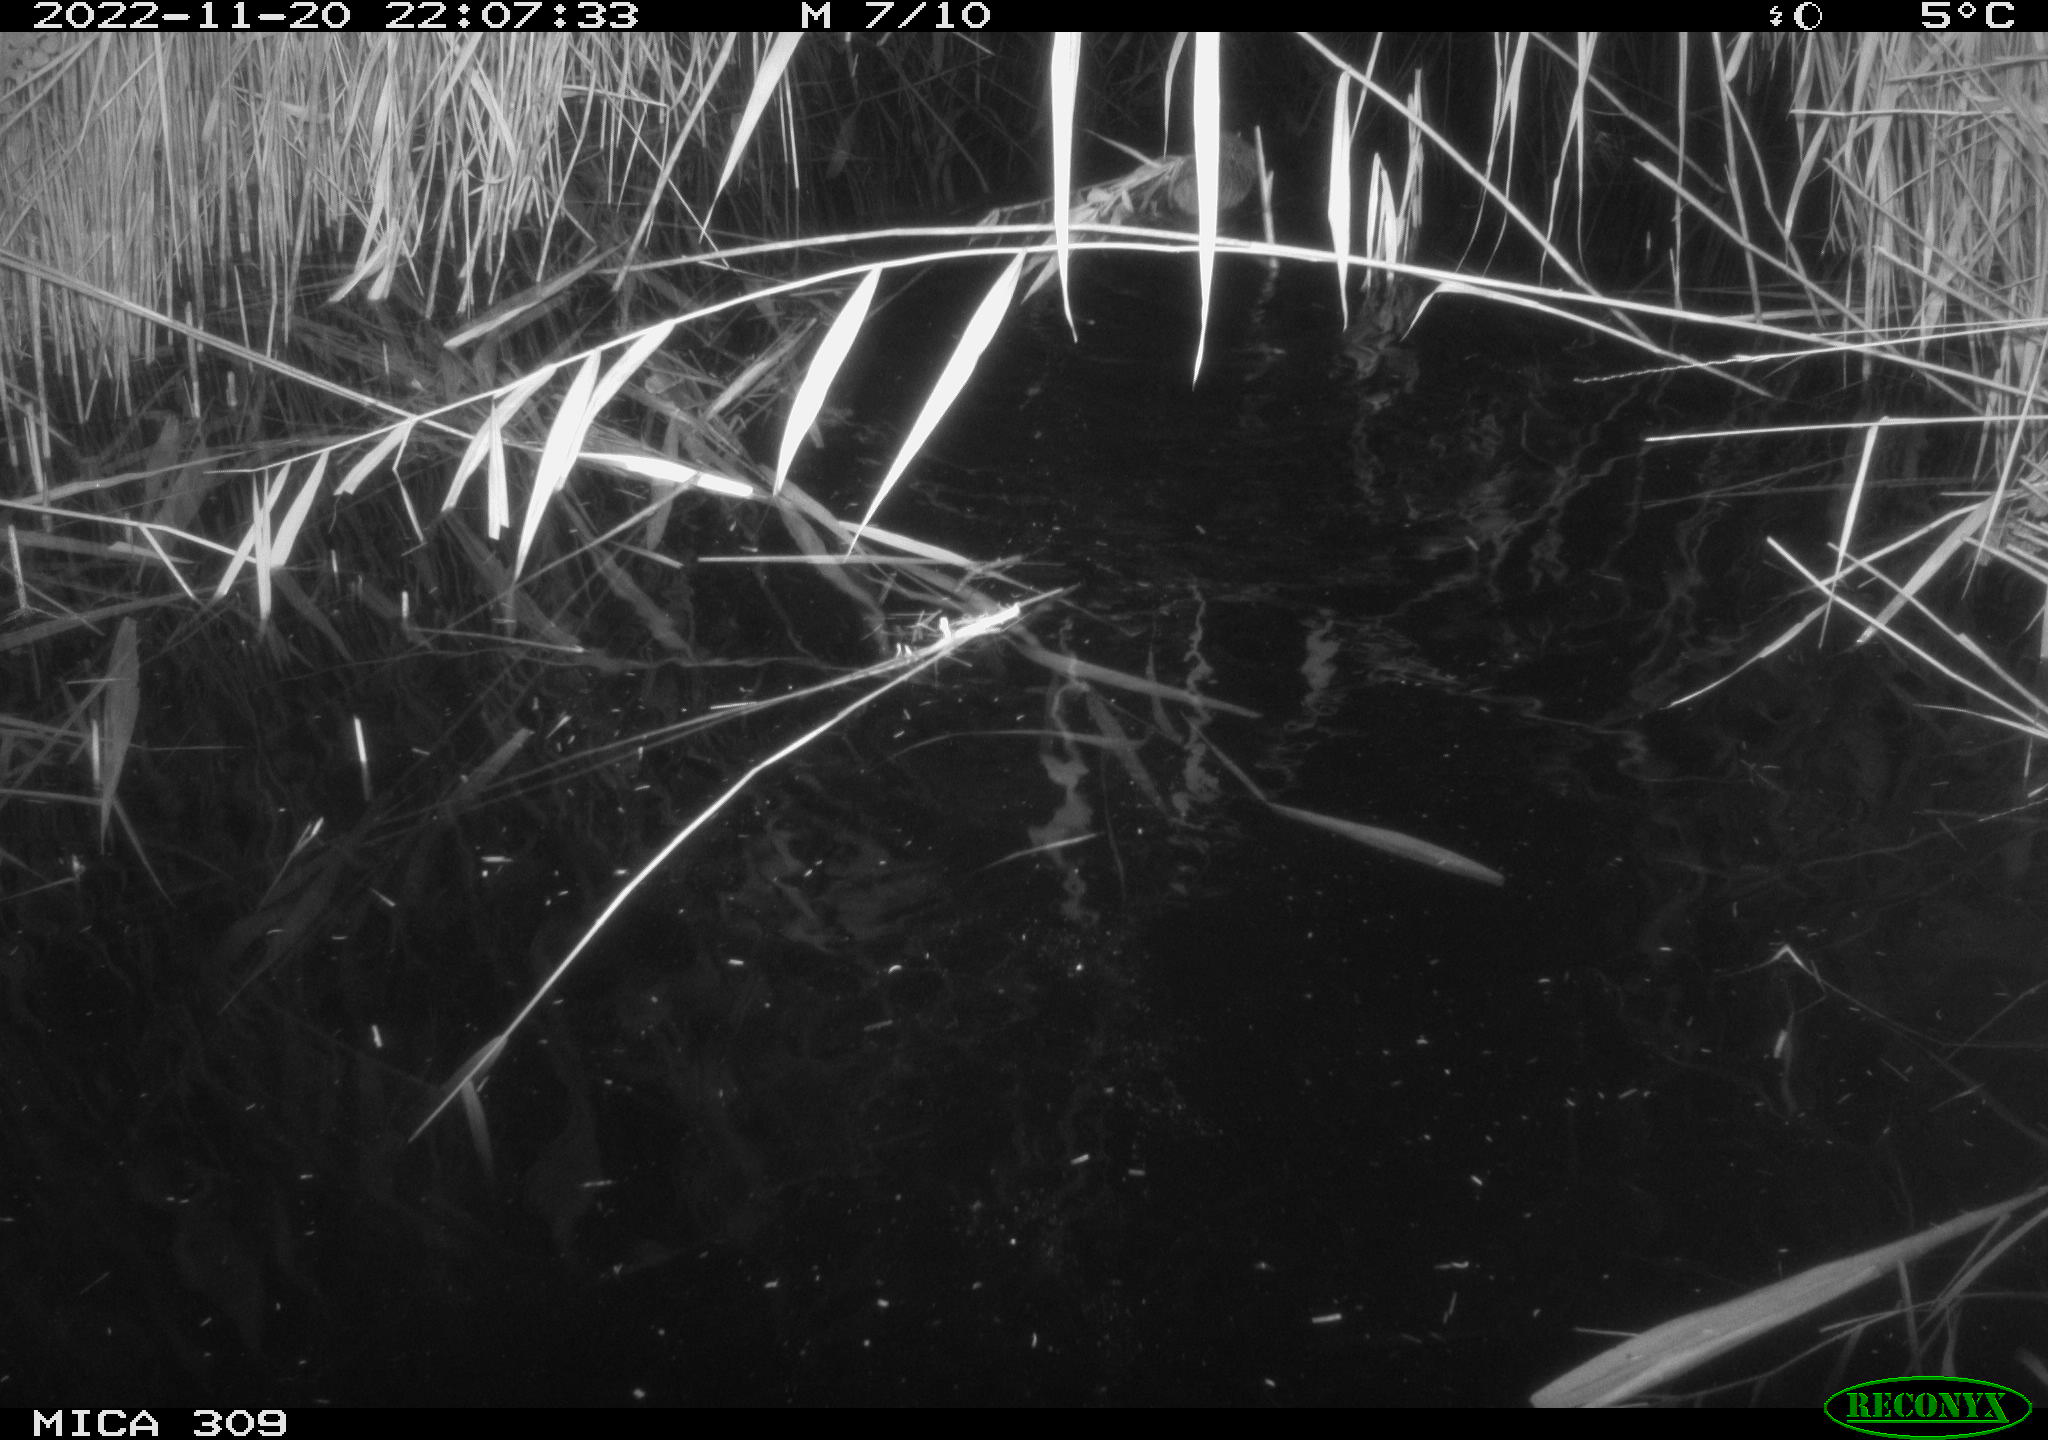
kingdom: Animalia
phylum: Chordata
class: Mammalia
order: Rodentia
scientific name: Rodentia
